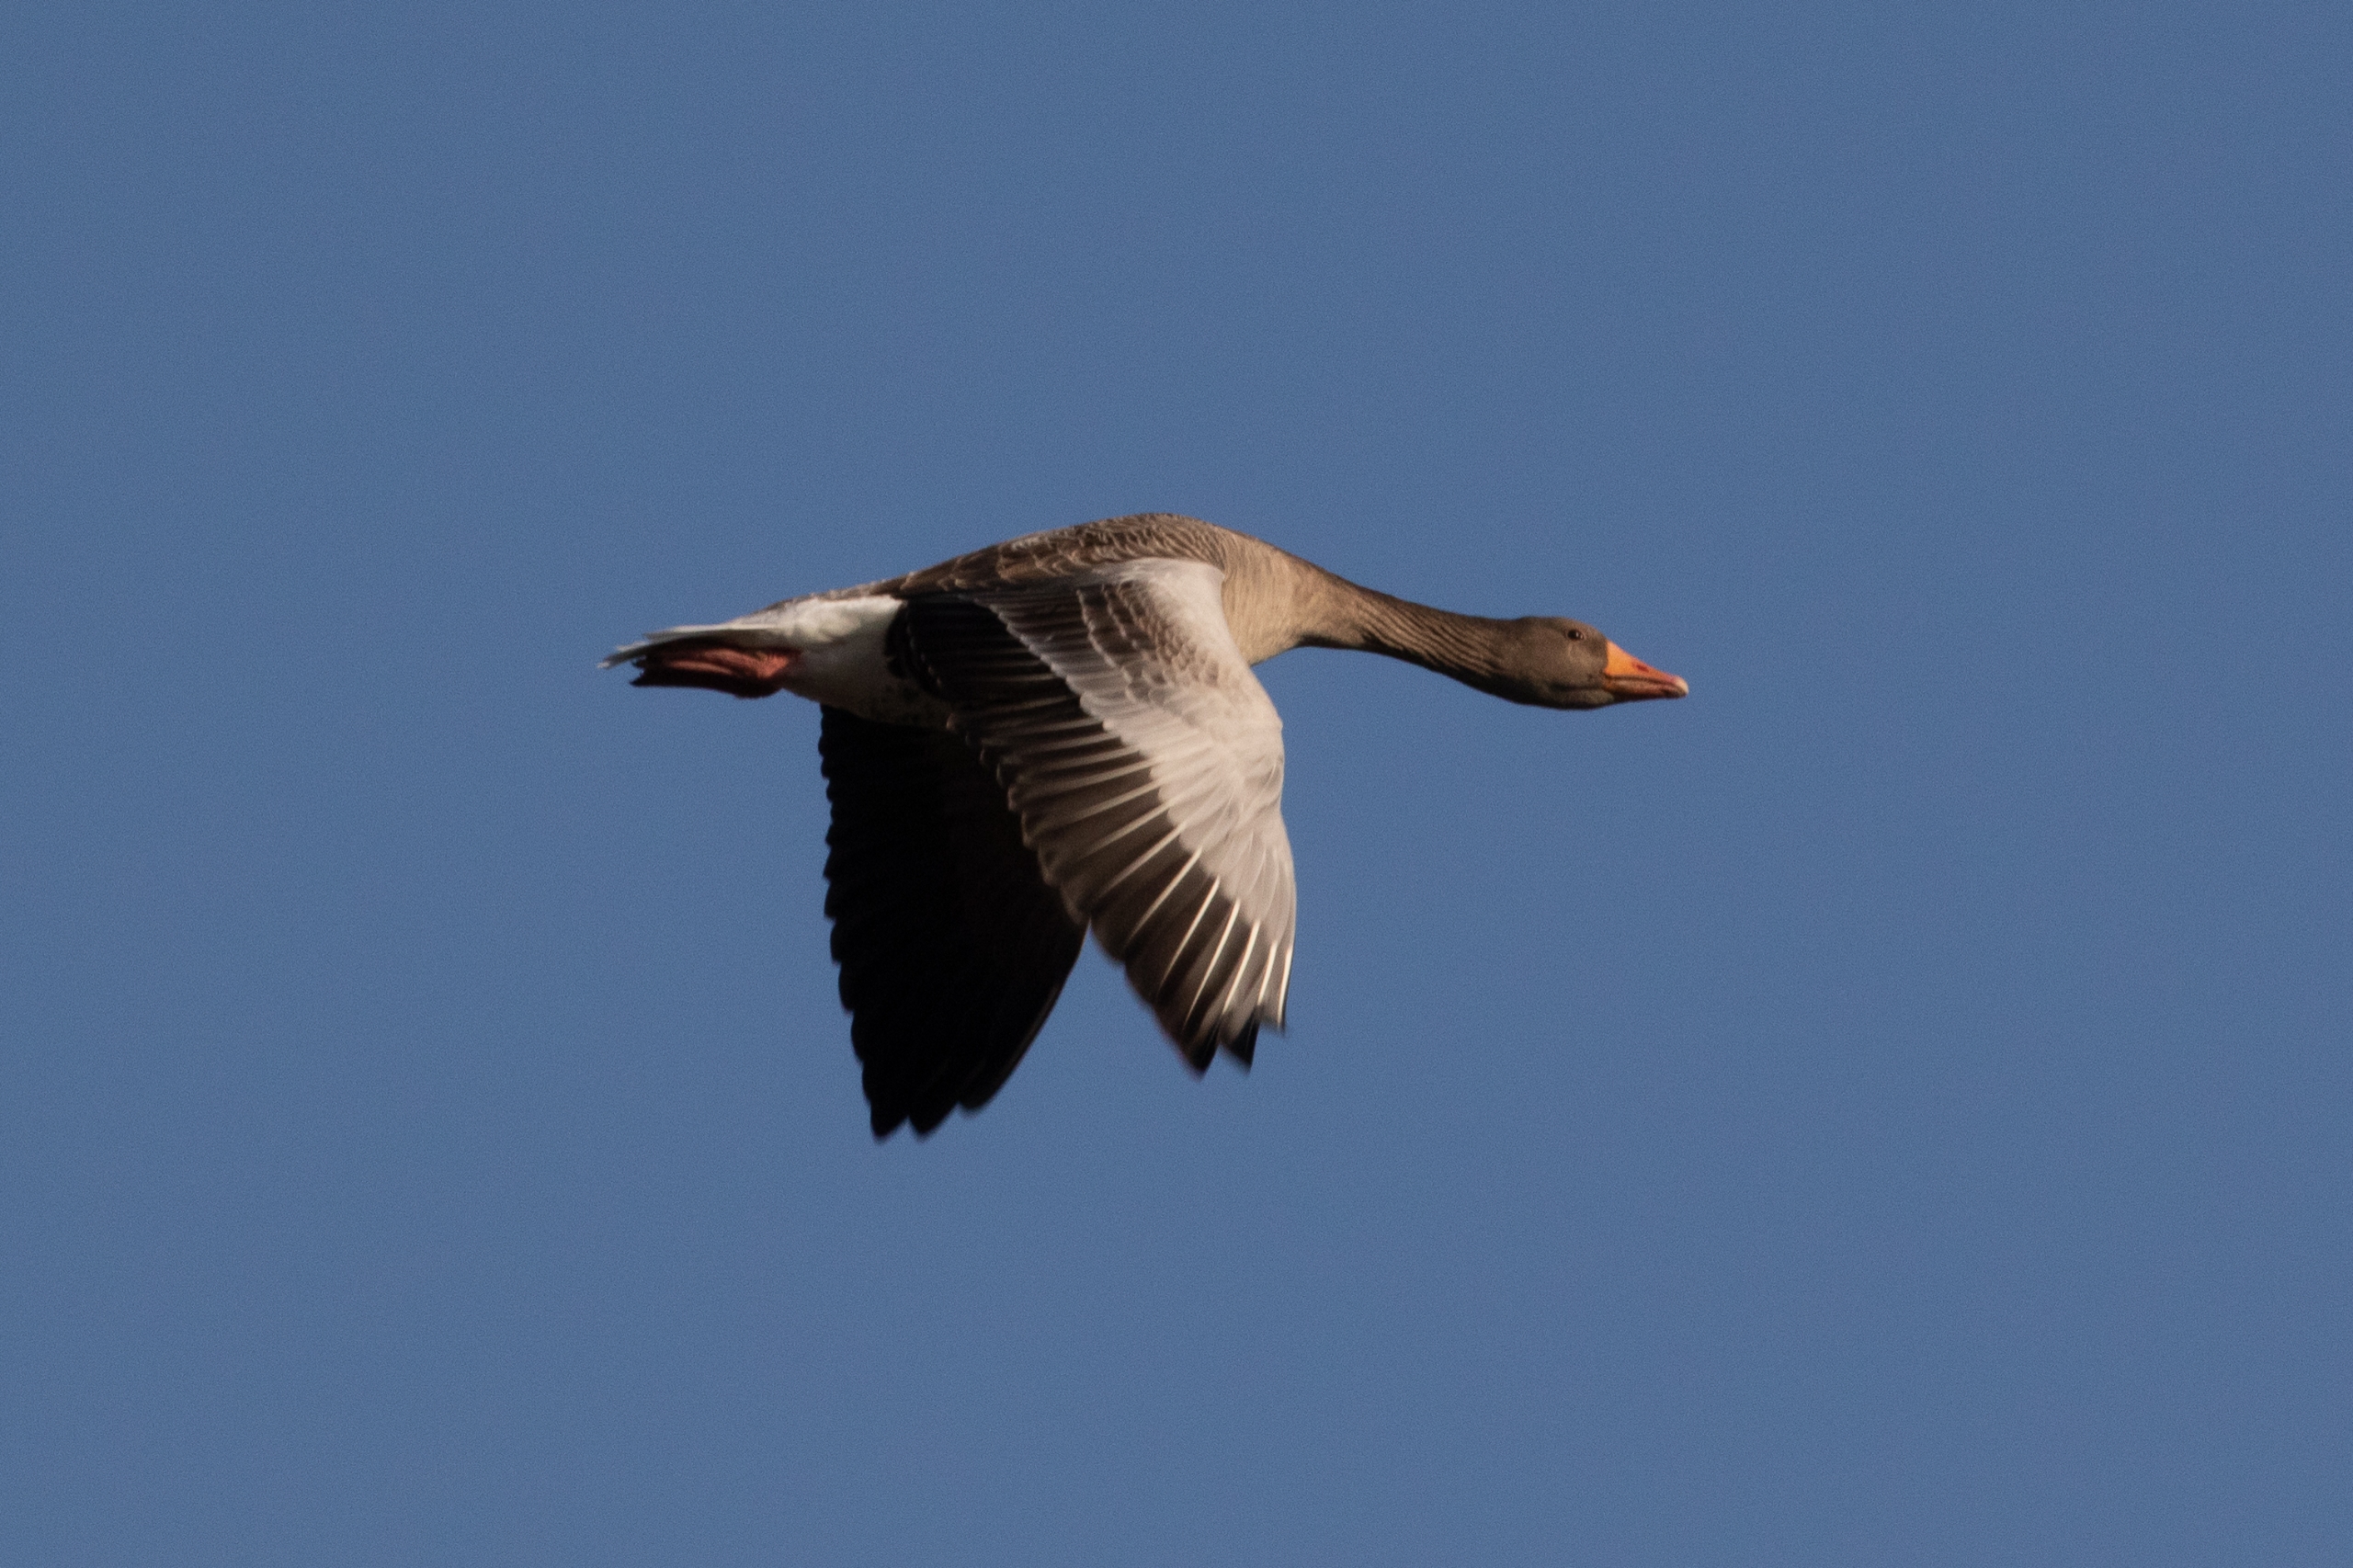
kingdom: Animalia
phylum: Chordata
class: Aves
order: Anseriformes
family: Anatidae
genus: Anser
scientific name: Anser anser
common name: Grågås
